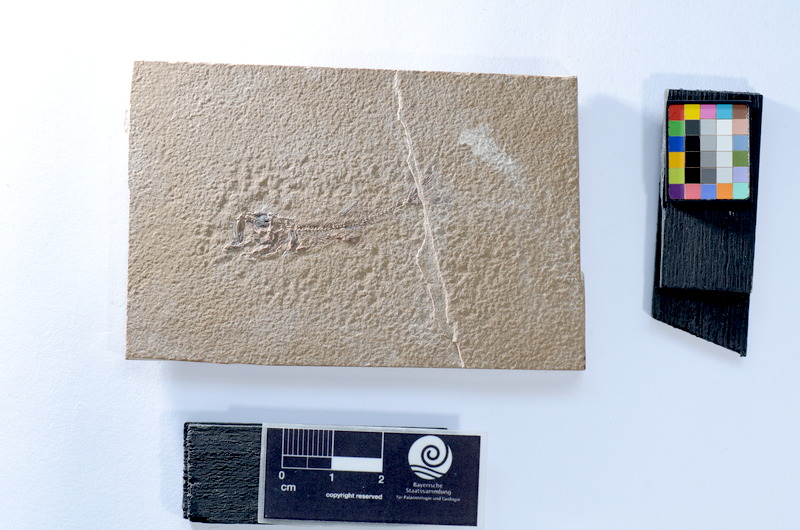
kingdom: Animalia
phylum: Chordata
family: Ascalaboidae
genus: Ascalabos
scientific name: Ascalabos voithii
